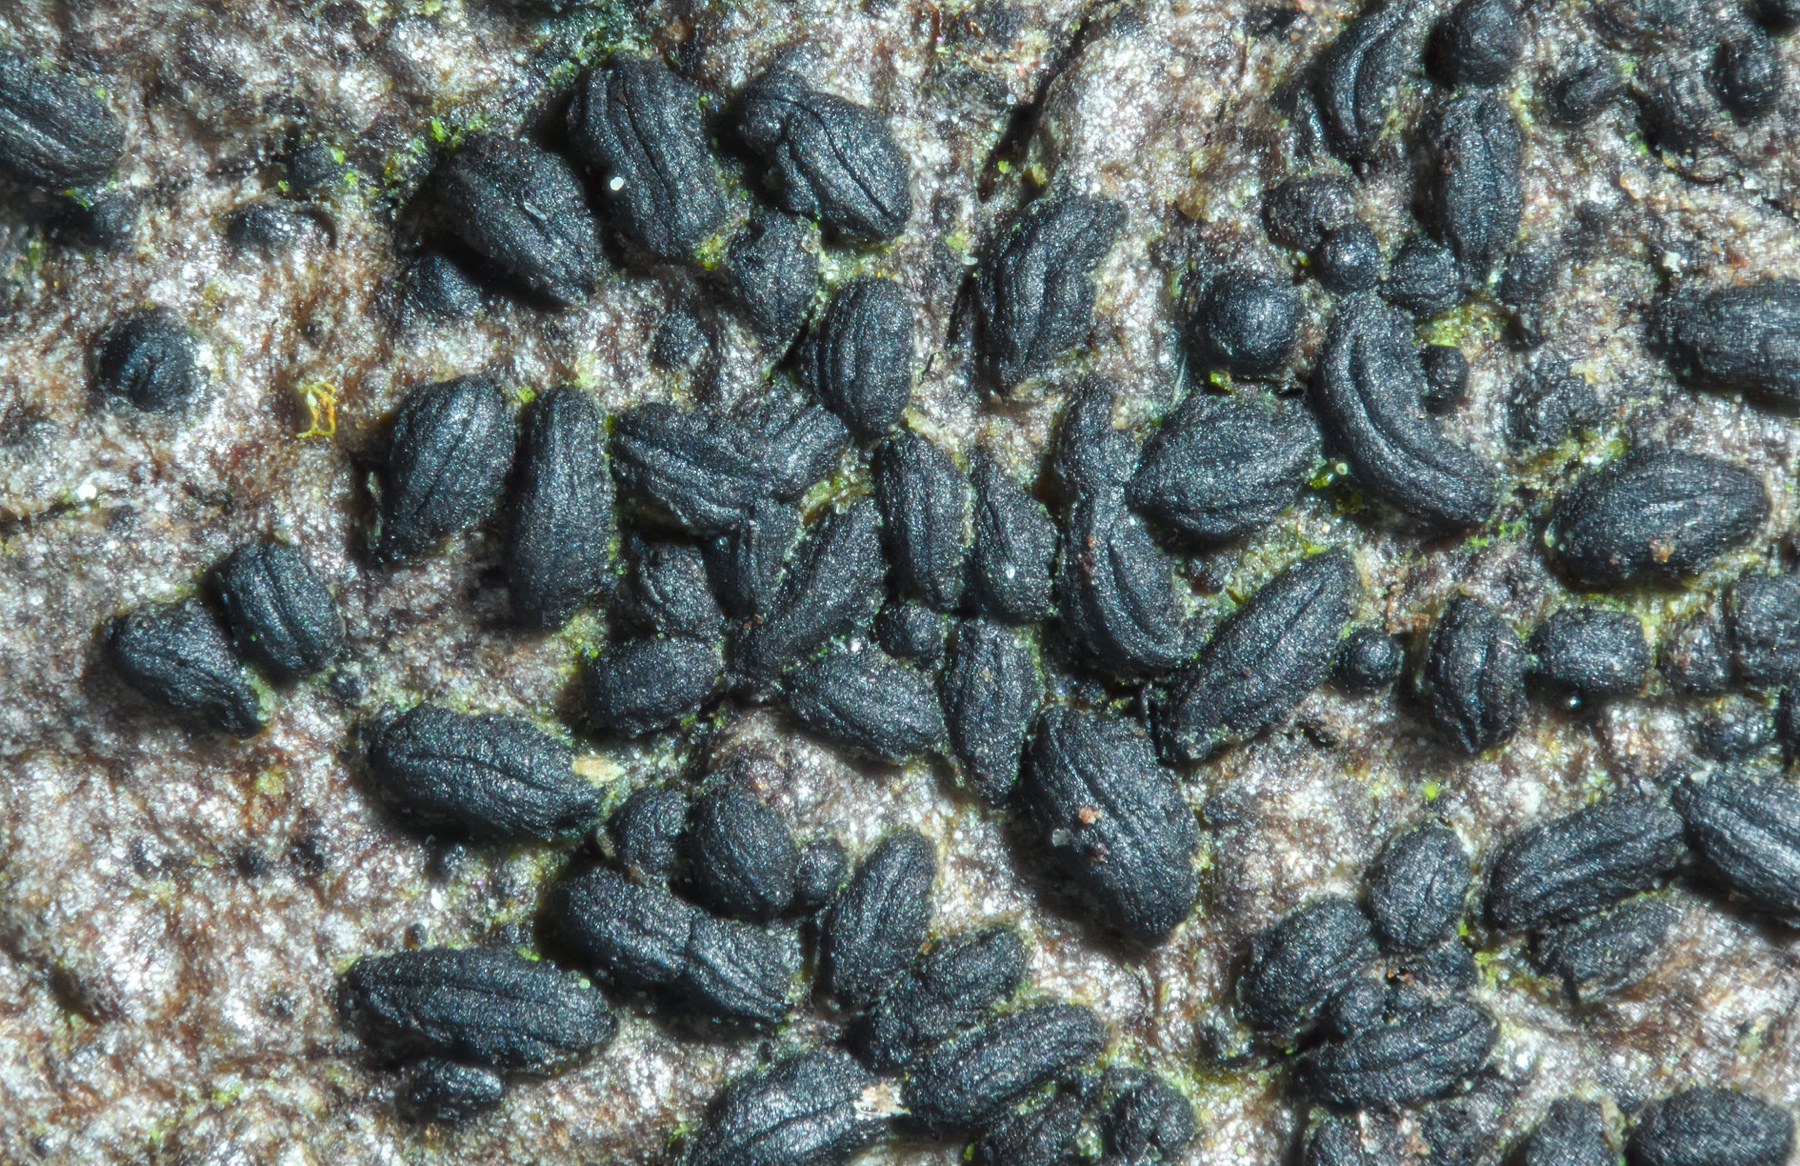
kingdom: Fungi
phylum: Ascomycota
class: Dothideomycetes
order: Hysteriales
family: Hysteriaceae
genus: Hysterium
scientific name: Hysterium acuminatum
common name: almindelig kulmund
